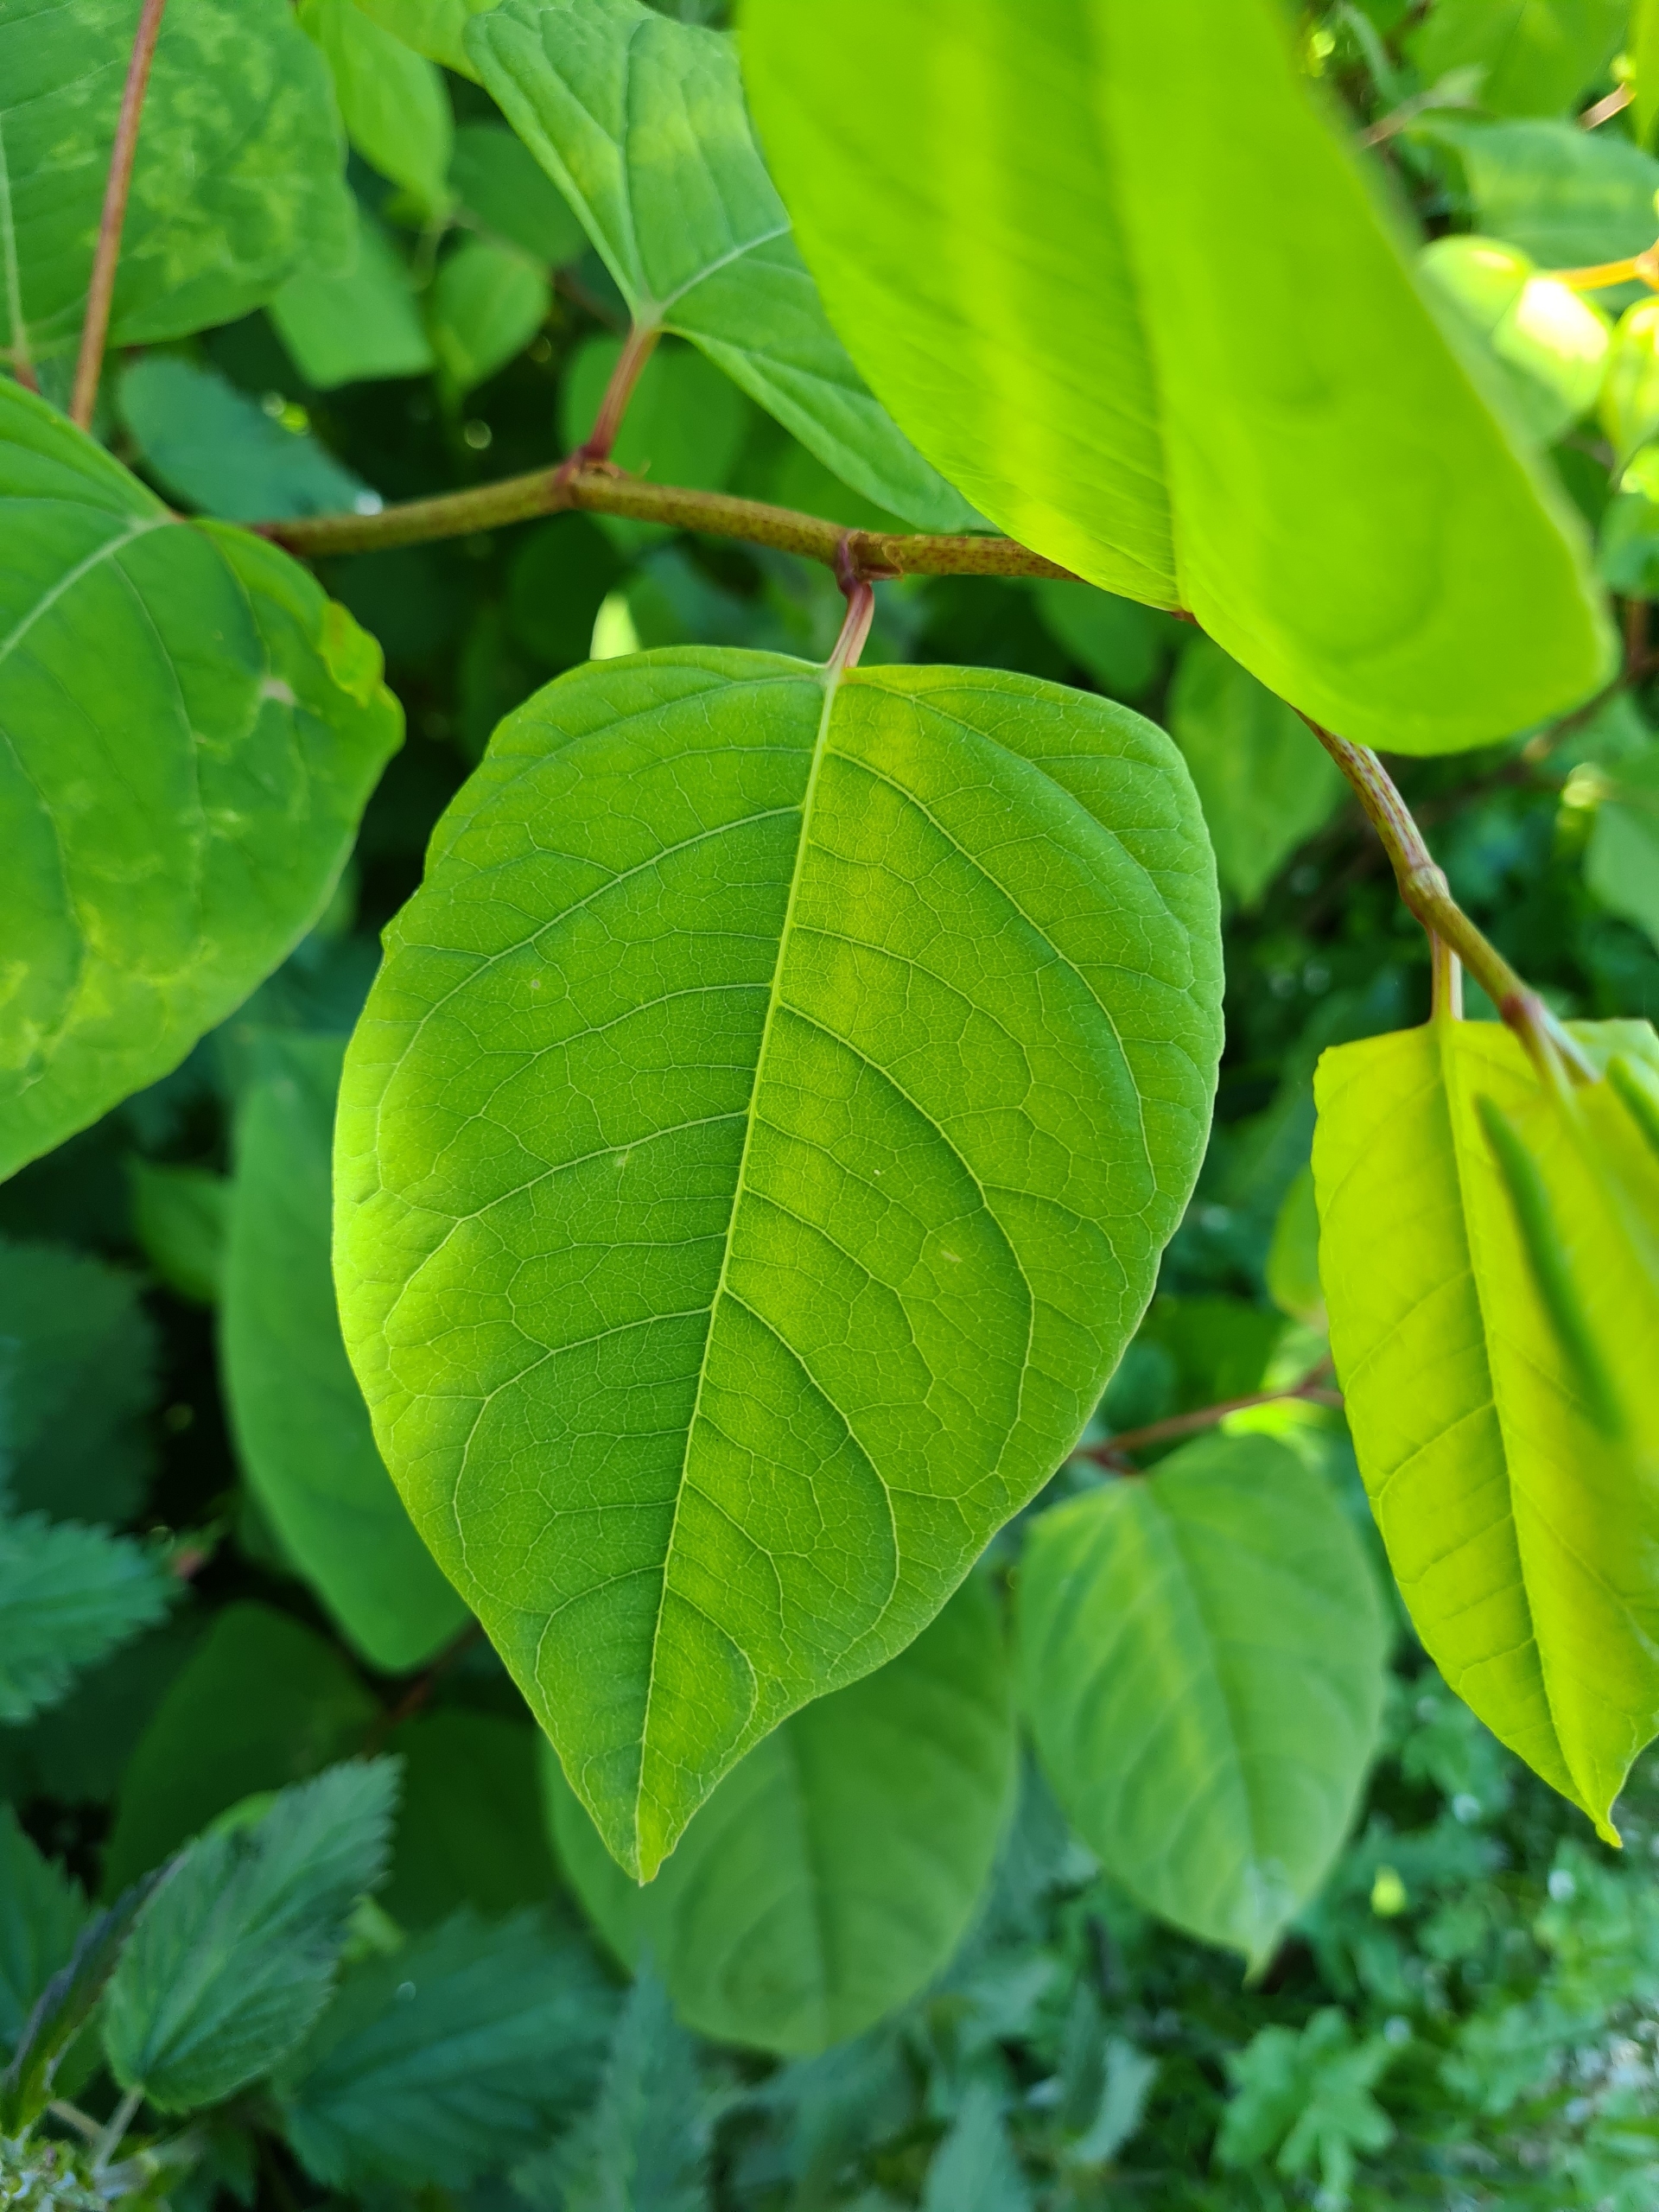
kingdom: Plantae
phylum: Tracheophyta
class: Magnoliopsida
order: Caryophyllales
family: Polygonaceae
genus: Reynoutria
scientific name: Reynoutria japonica
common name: Japan-pileurt
